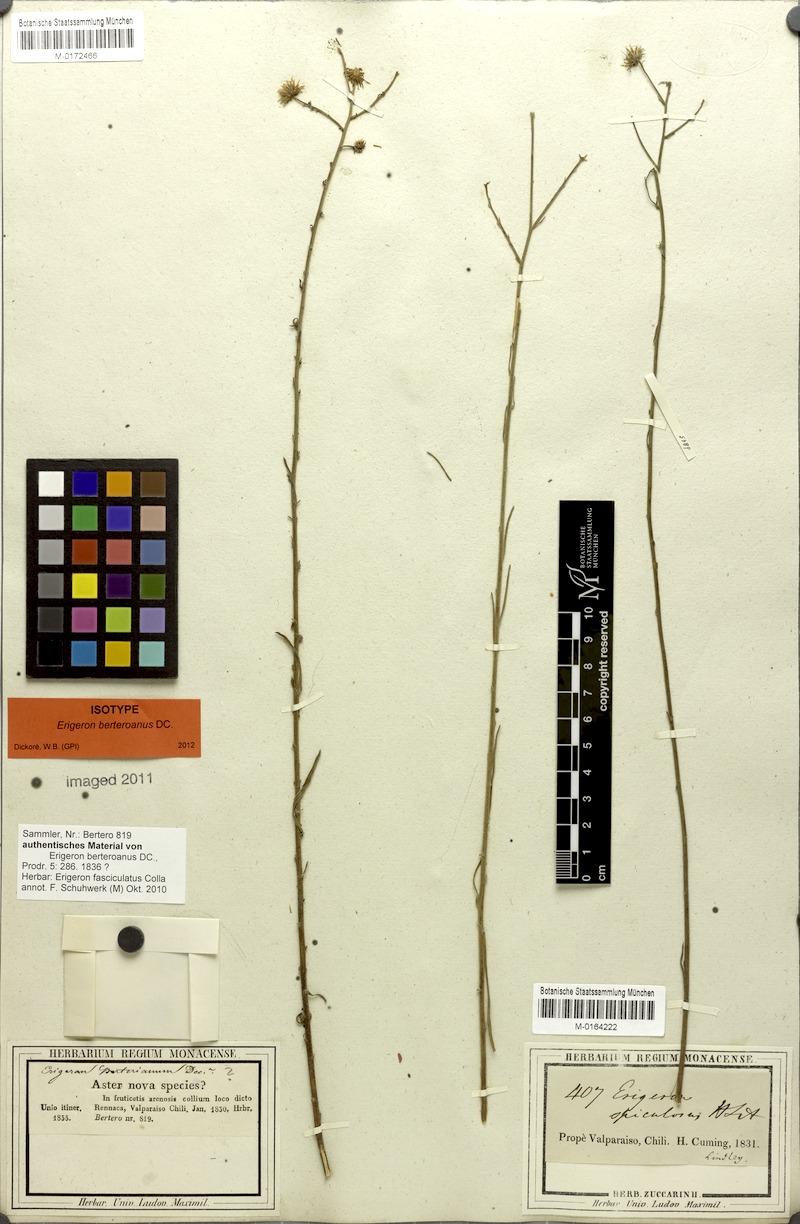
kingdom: Plantae
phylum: Tracheophyta
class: Magnoliopsida
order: Asterales
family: Asteraceae
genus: Erigeron
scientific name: Erigeron fasciculatus
